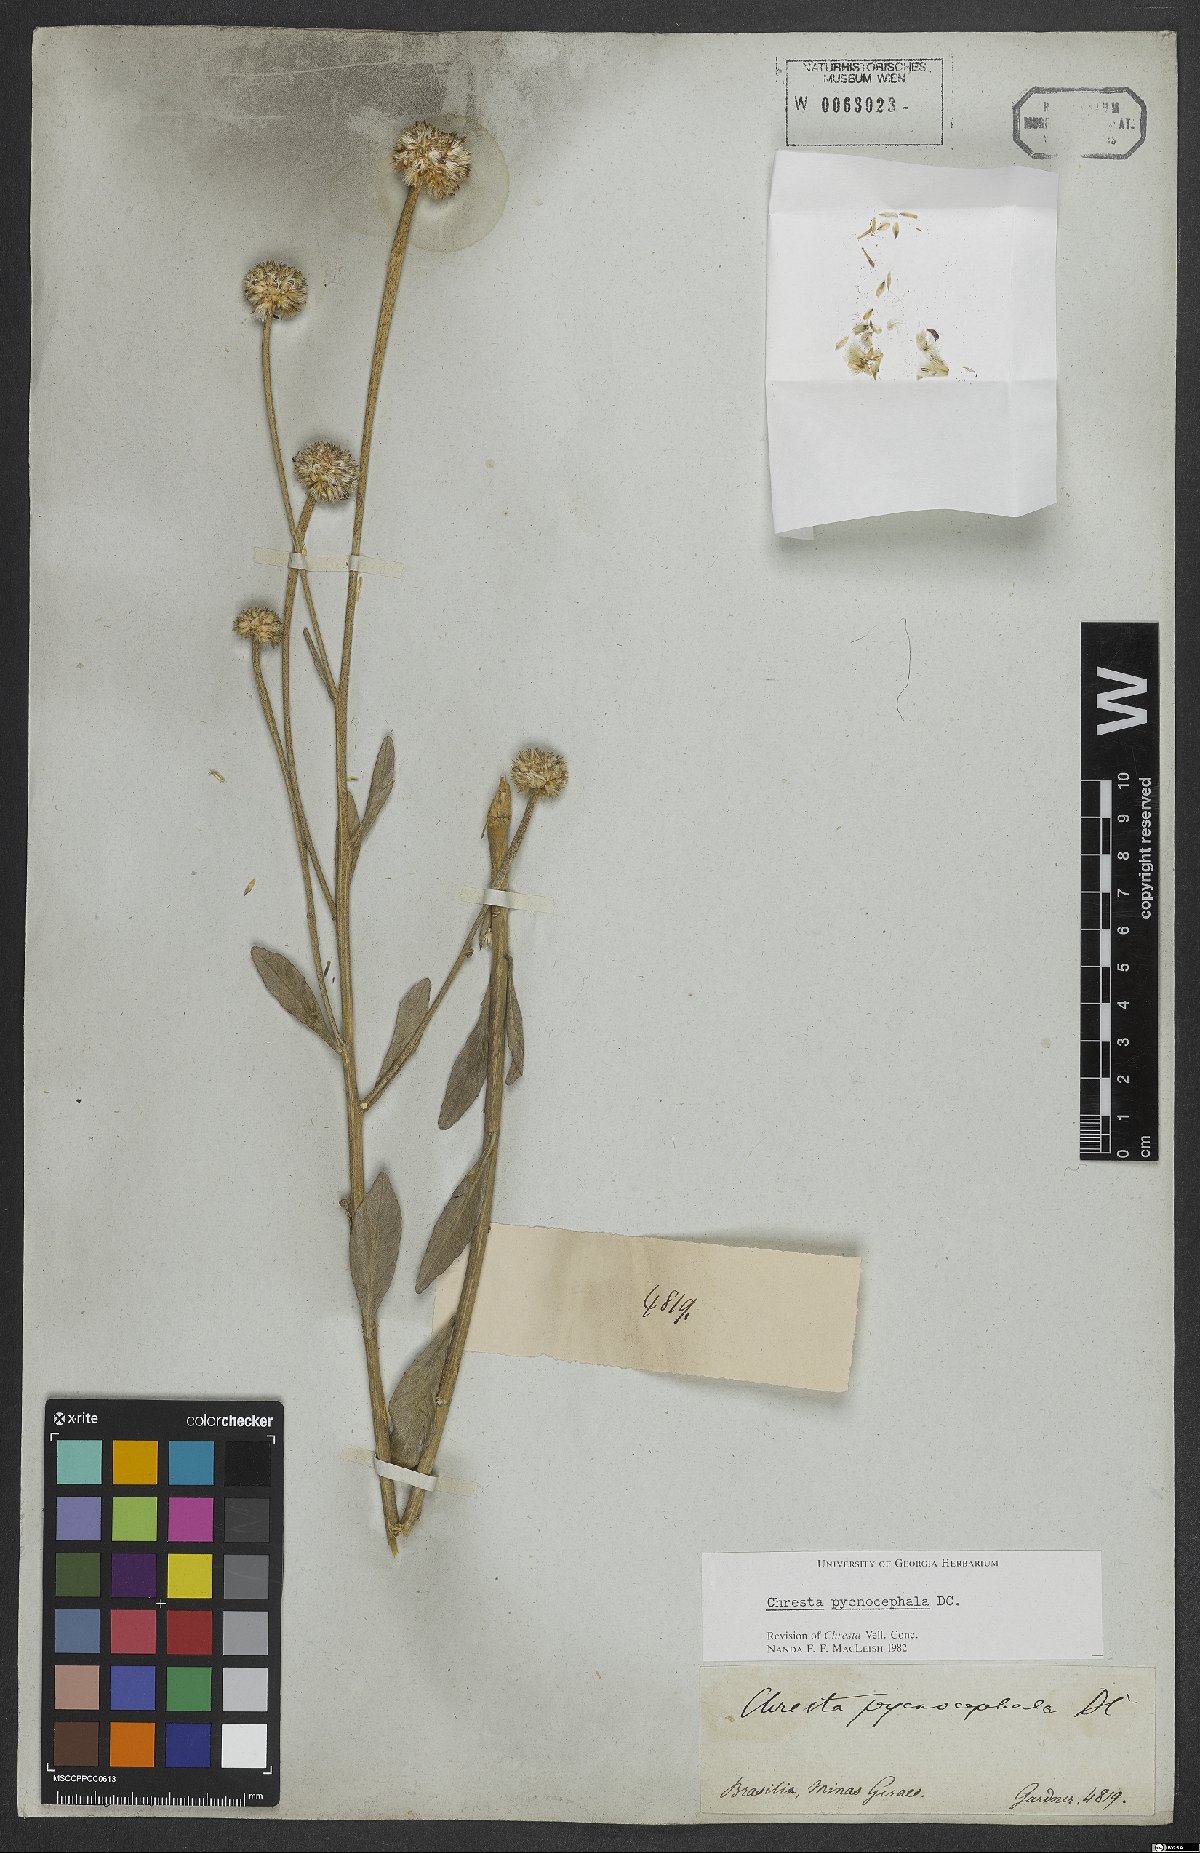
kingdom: Plantae
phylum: Tracheophyta
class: Magnoliopsida
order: Asterales
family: Asteraceae
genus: Chresta
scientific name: Chresta pycnocephala
